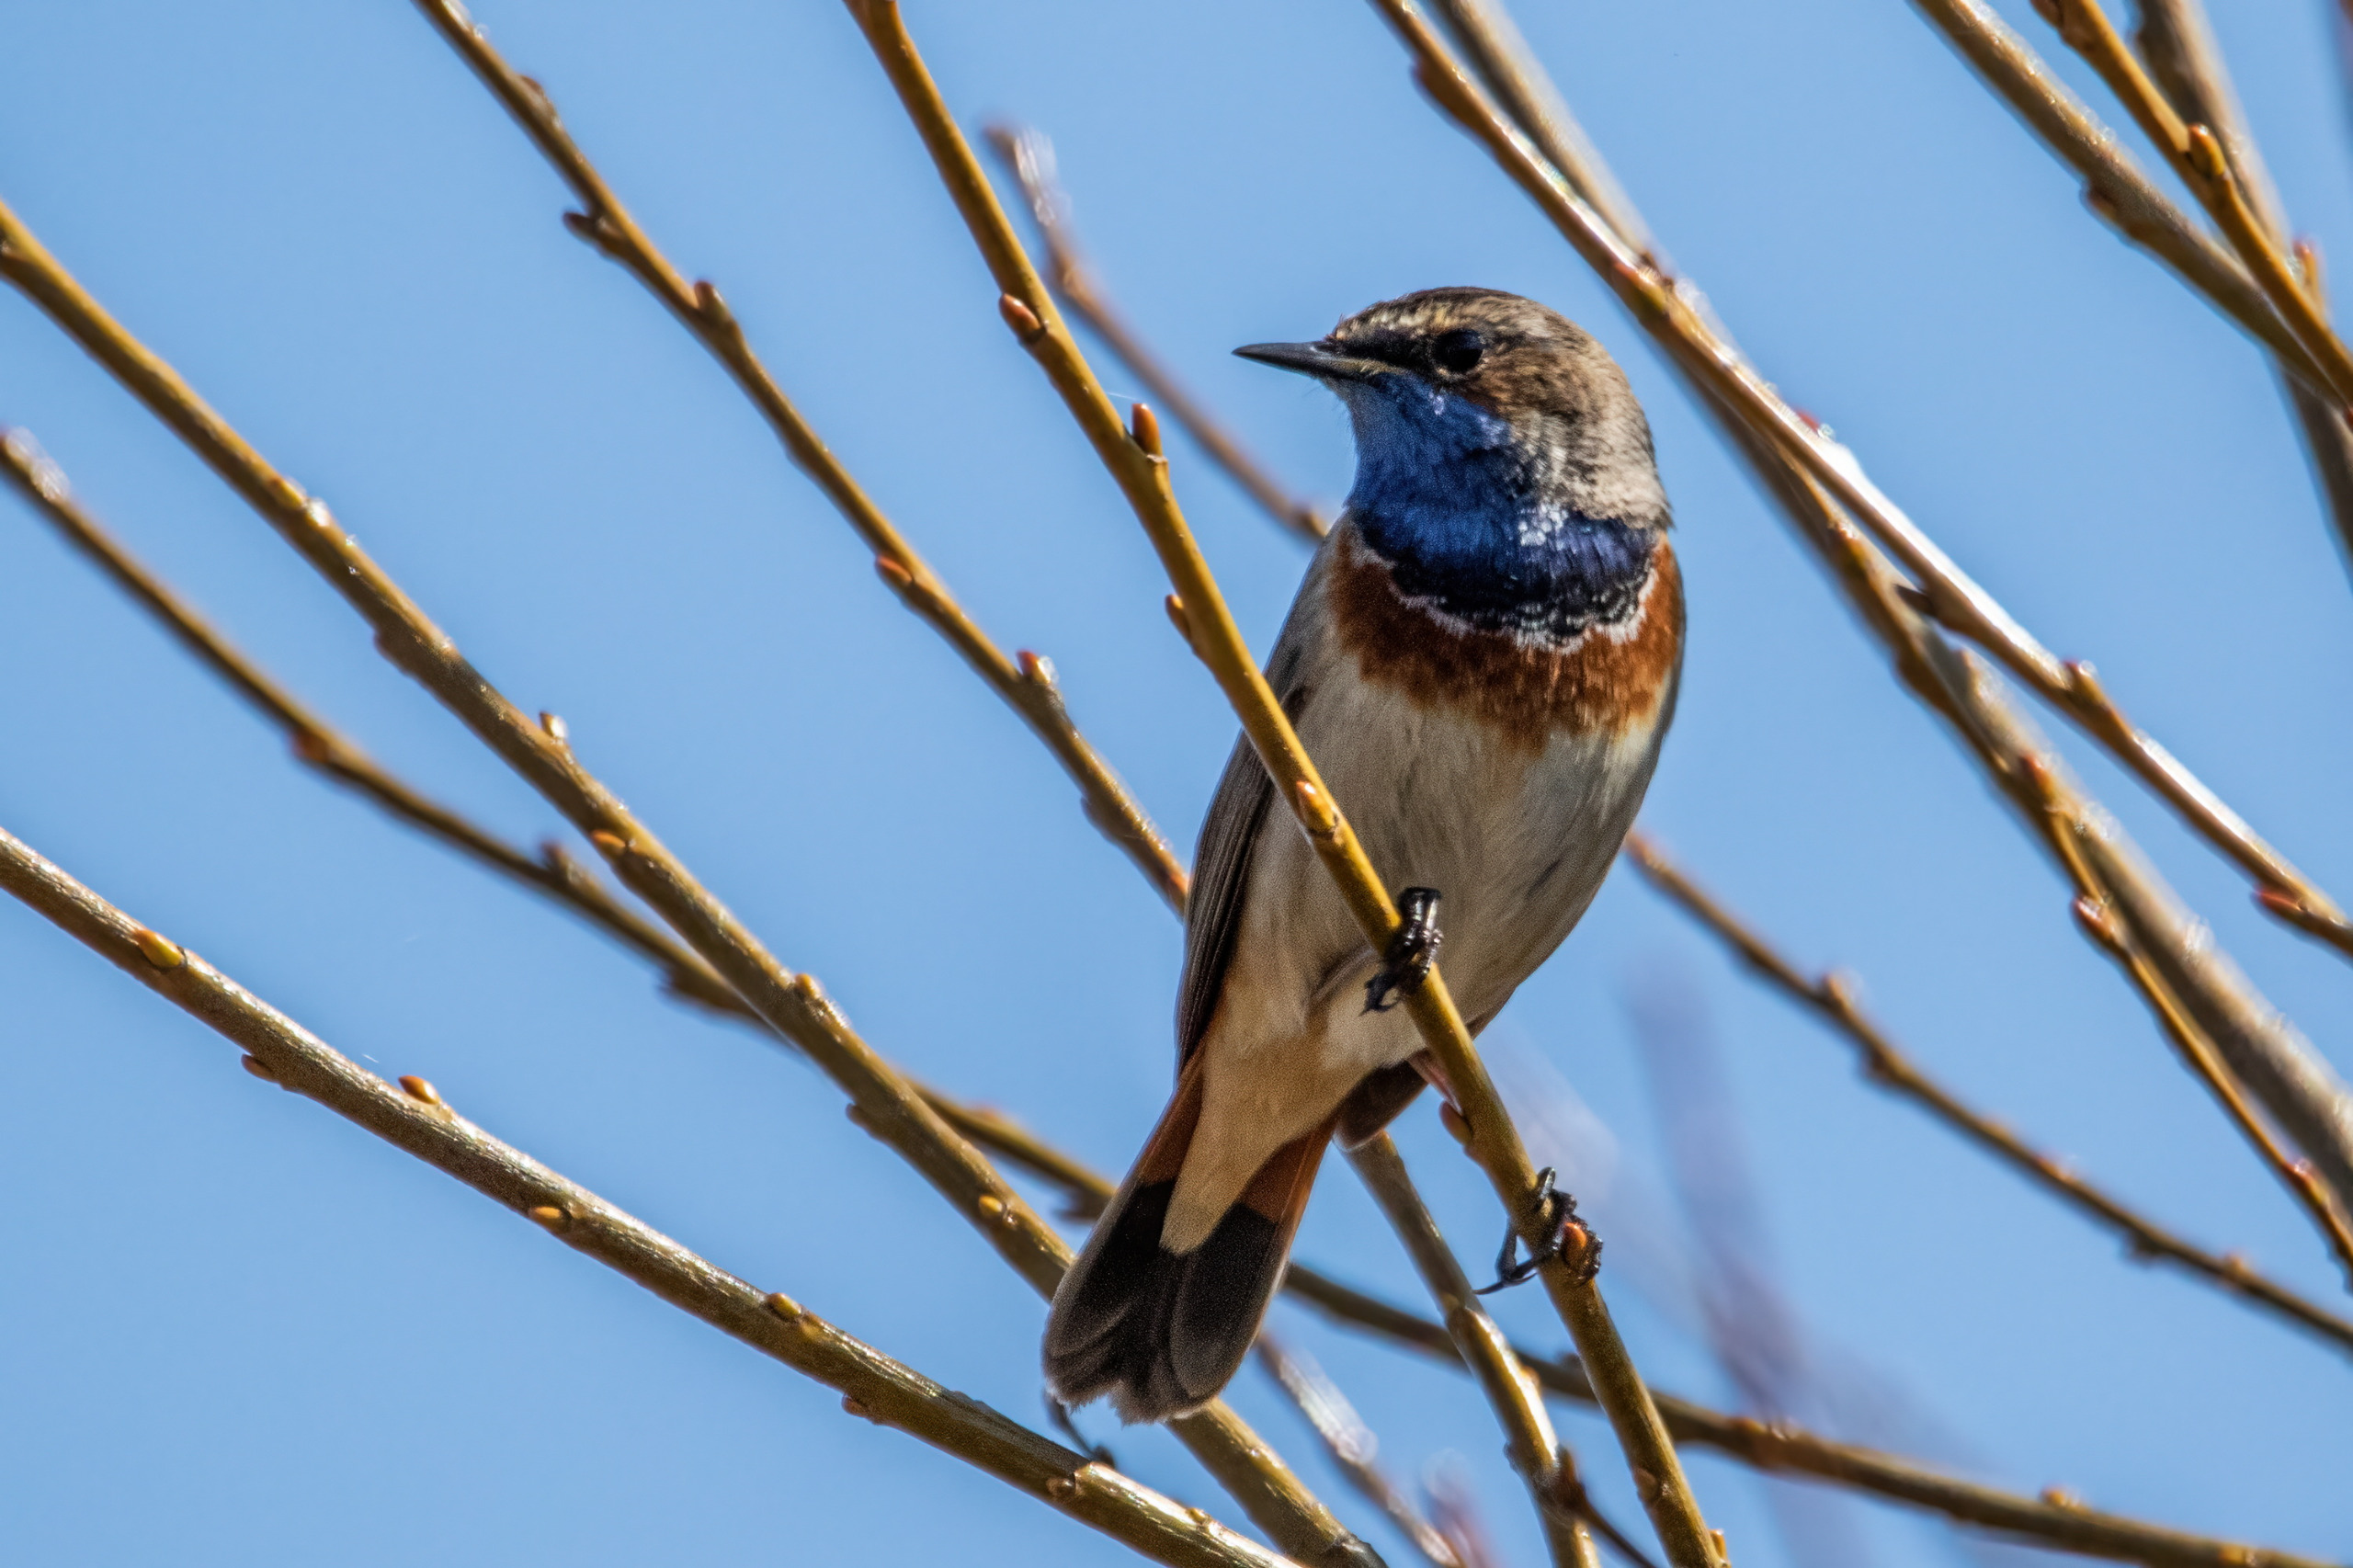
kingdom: Animalia
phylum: Chordata
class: Aves
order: Passeriformes
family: Muscicapidae
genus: Luscinia
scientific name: Luscinia svecica
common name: Blåhals
